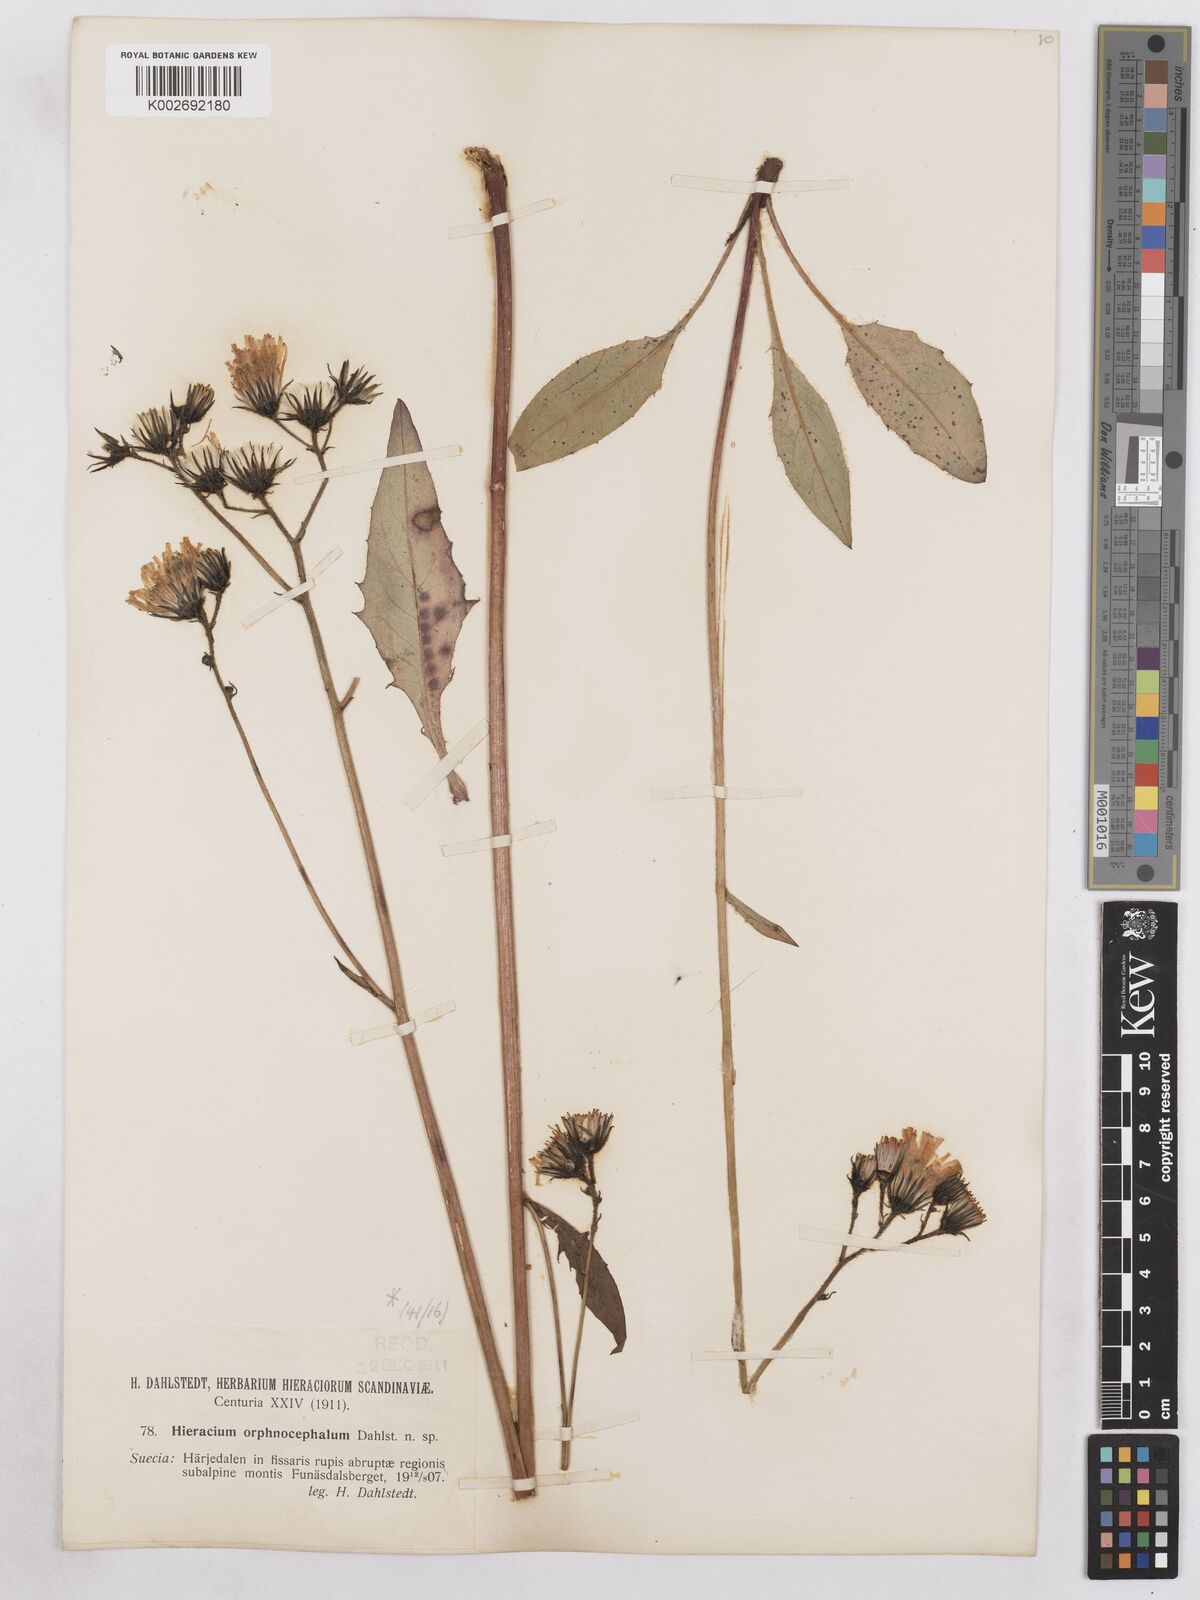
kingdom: Plantae
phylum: Tracheophyta
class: Magnoliopsida
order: Asterales
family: Asteraceae
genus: Hieracium
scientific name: Hieracium diaphanoides
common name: Fine-bracted hawkweed
